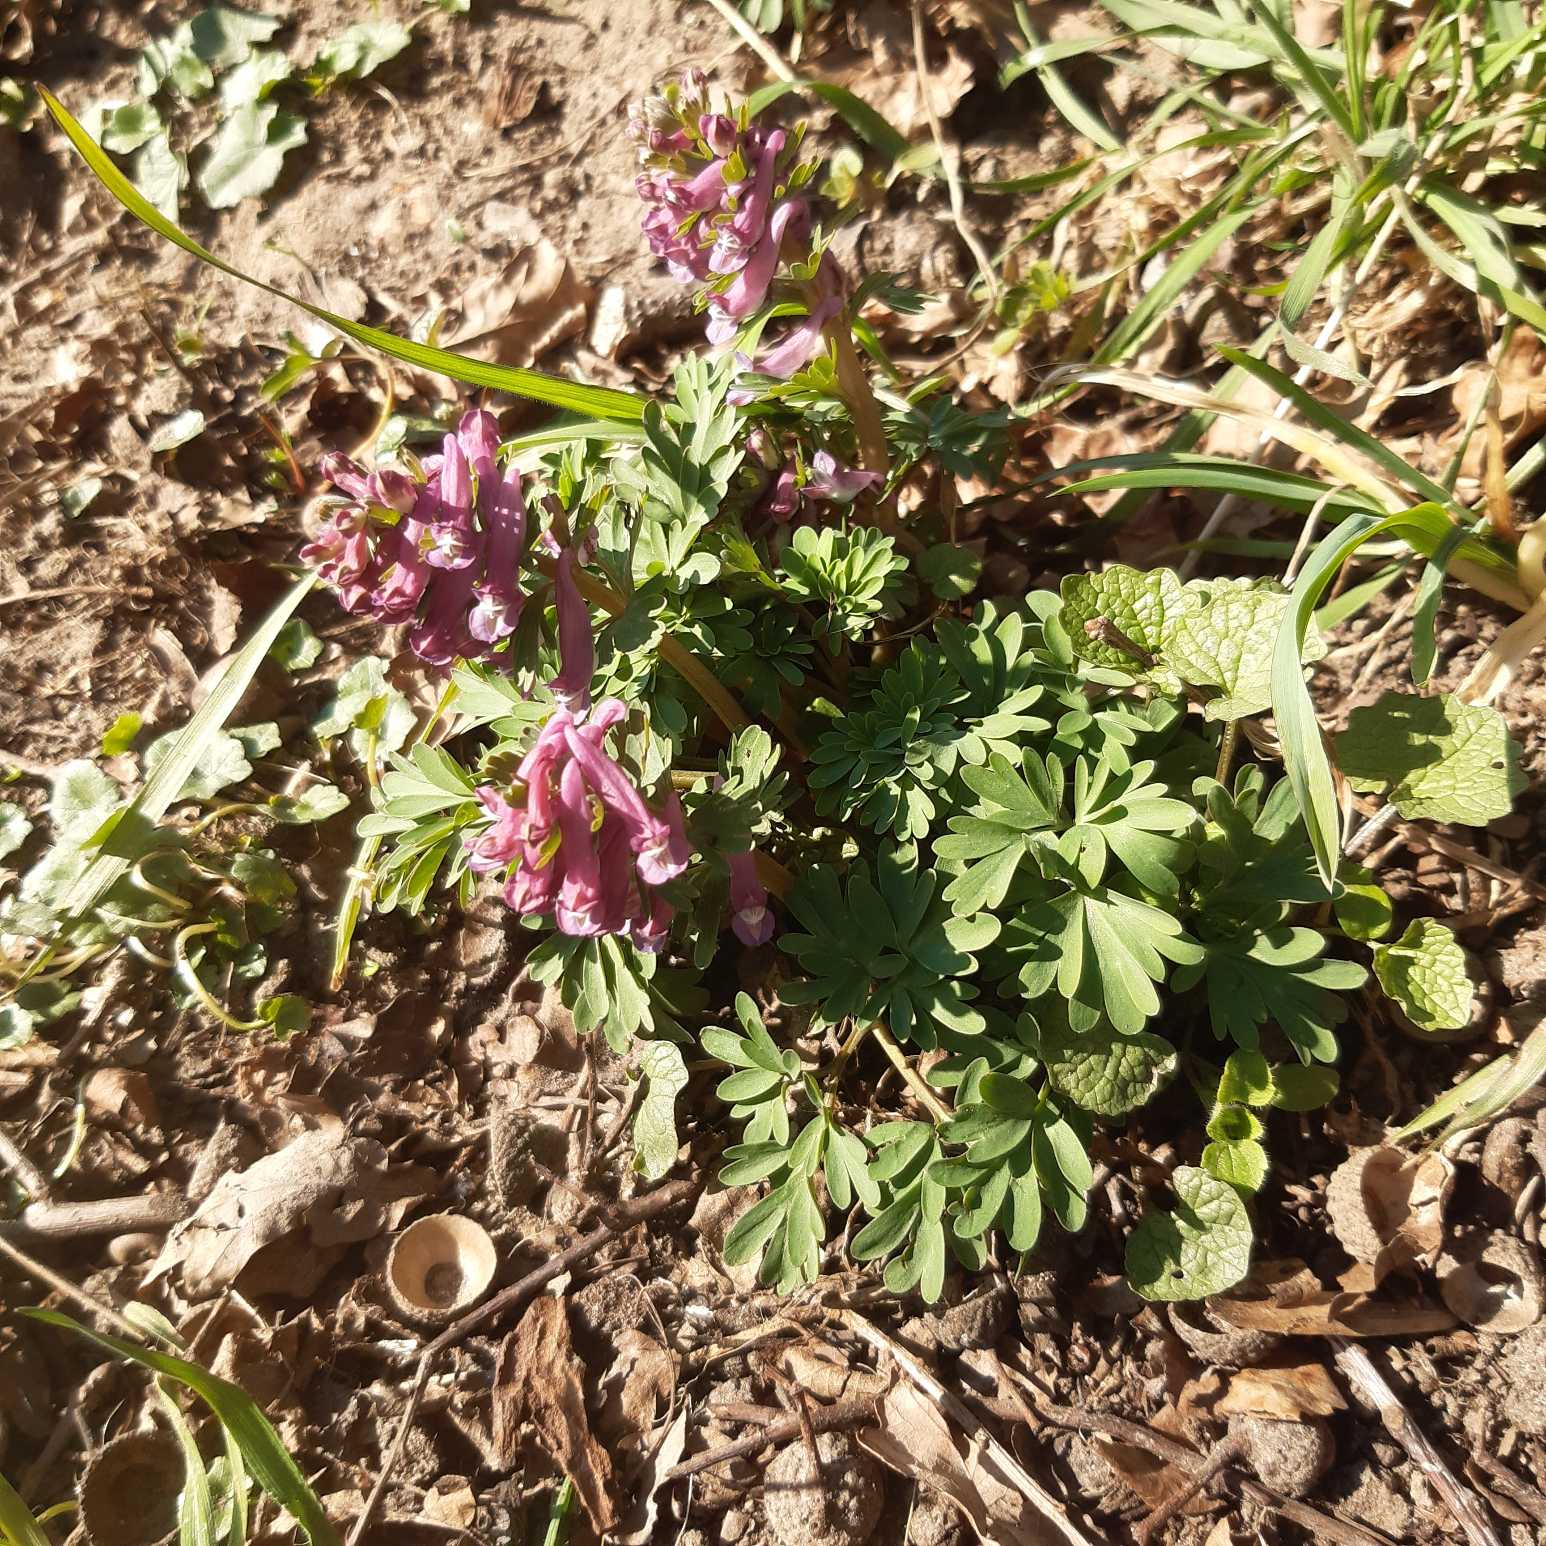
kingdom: Plantae
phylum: Tracheophyta
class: Magnoliopsida
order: Ranunculales
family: Papaveraceae
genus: Corydalis
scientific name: Corydalis solida
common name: Langstilket lærkespore
